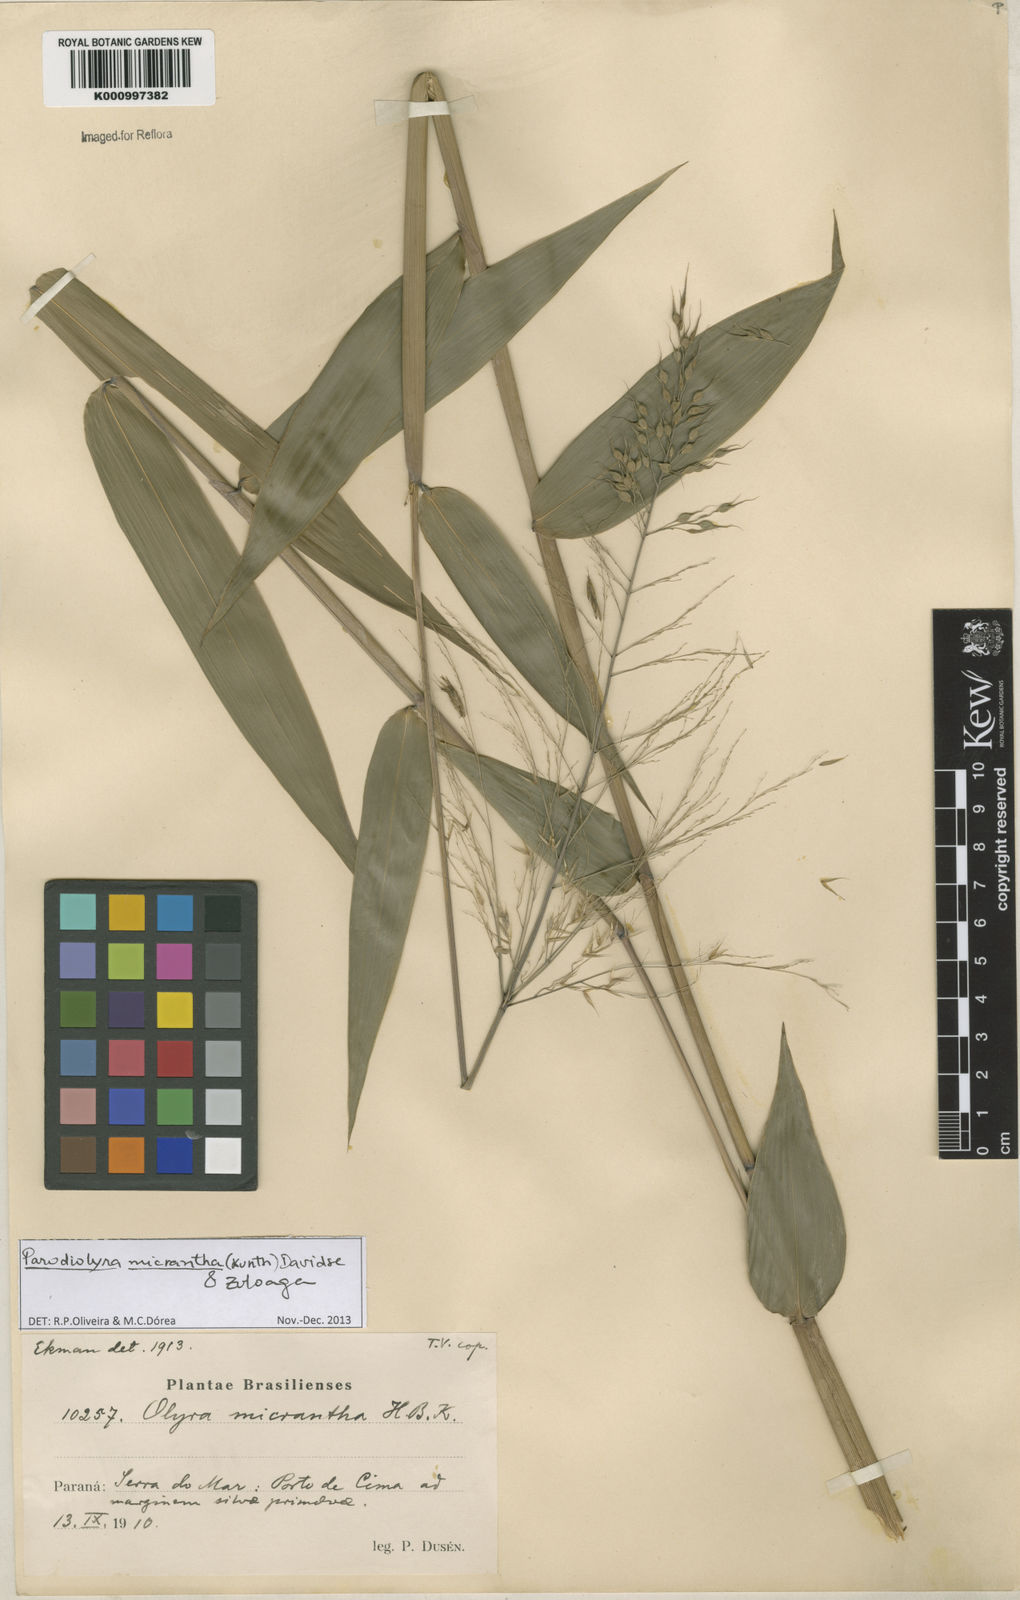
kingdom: Plantae
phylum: Tracheophyta
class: Liliopsida
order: Poales
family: Poaceae
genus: Taquara
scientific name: Taquara micrantha
